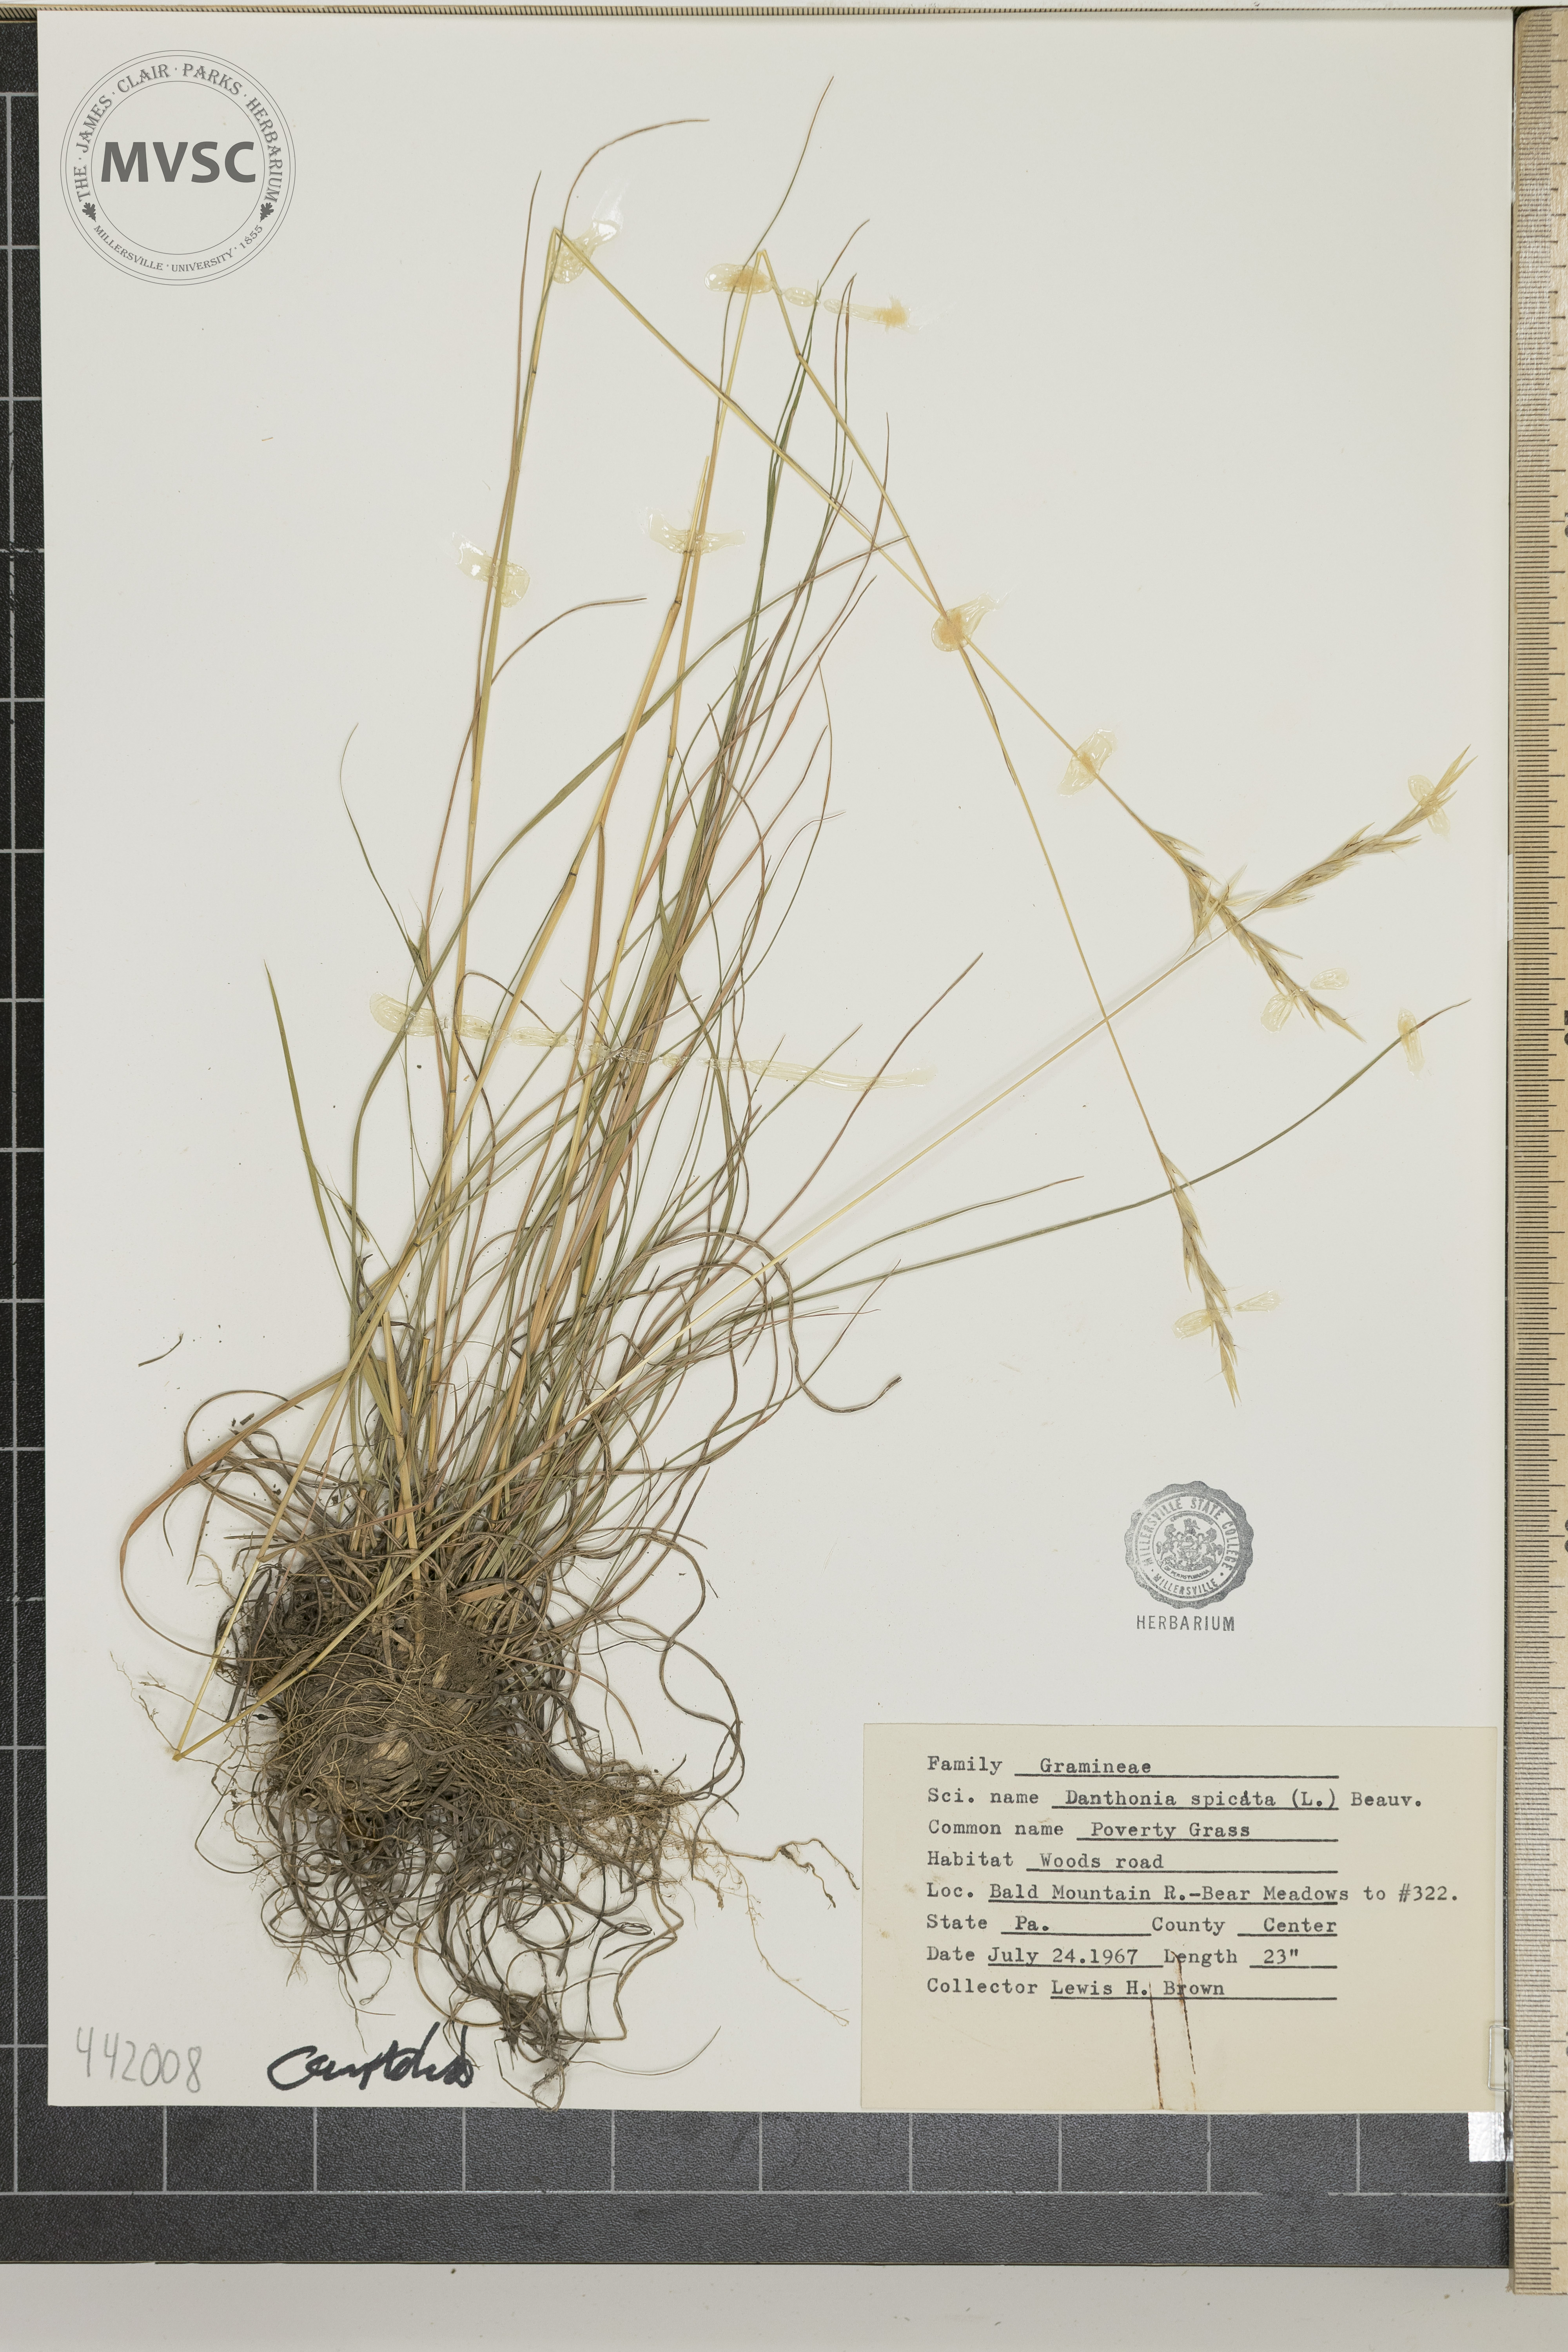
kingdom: Plantae
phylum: Tracheophyta
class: Liliopsida
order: Poales
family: Poaceae
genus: Danthonia
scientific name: Danthonia spicata
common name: Poverty grass
